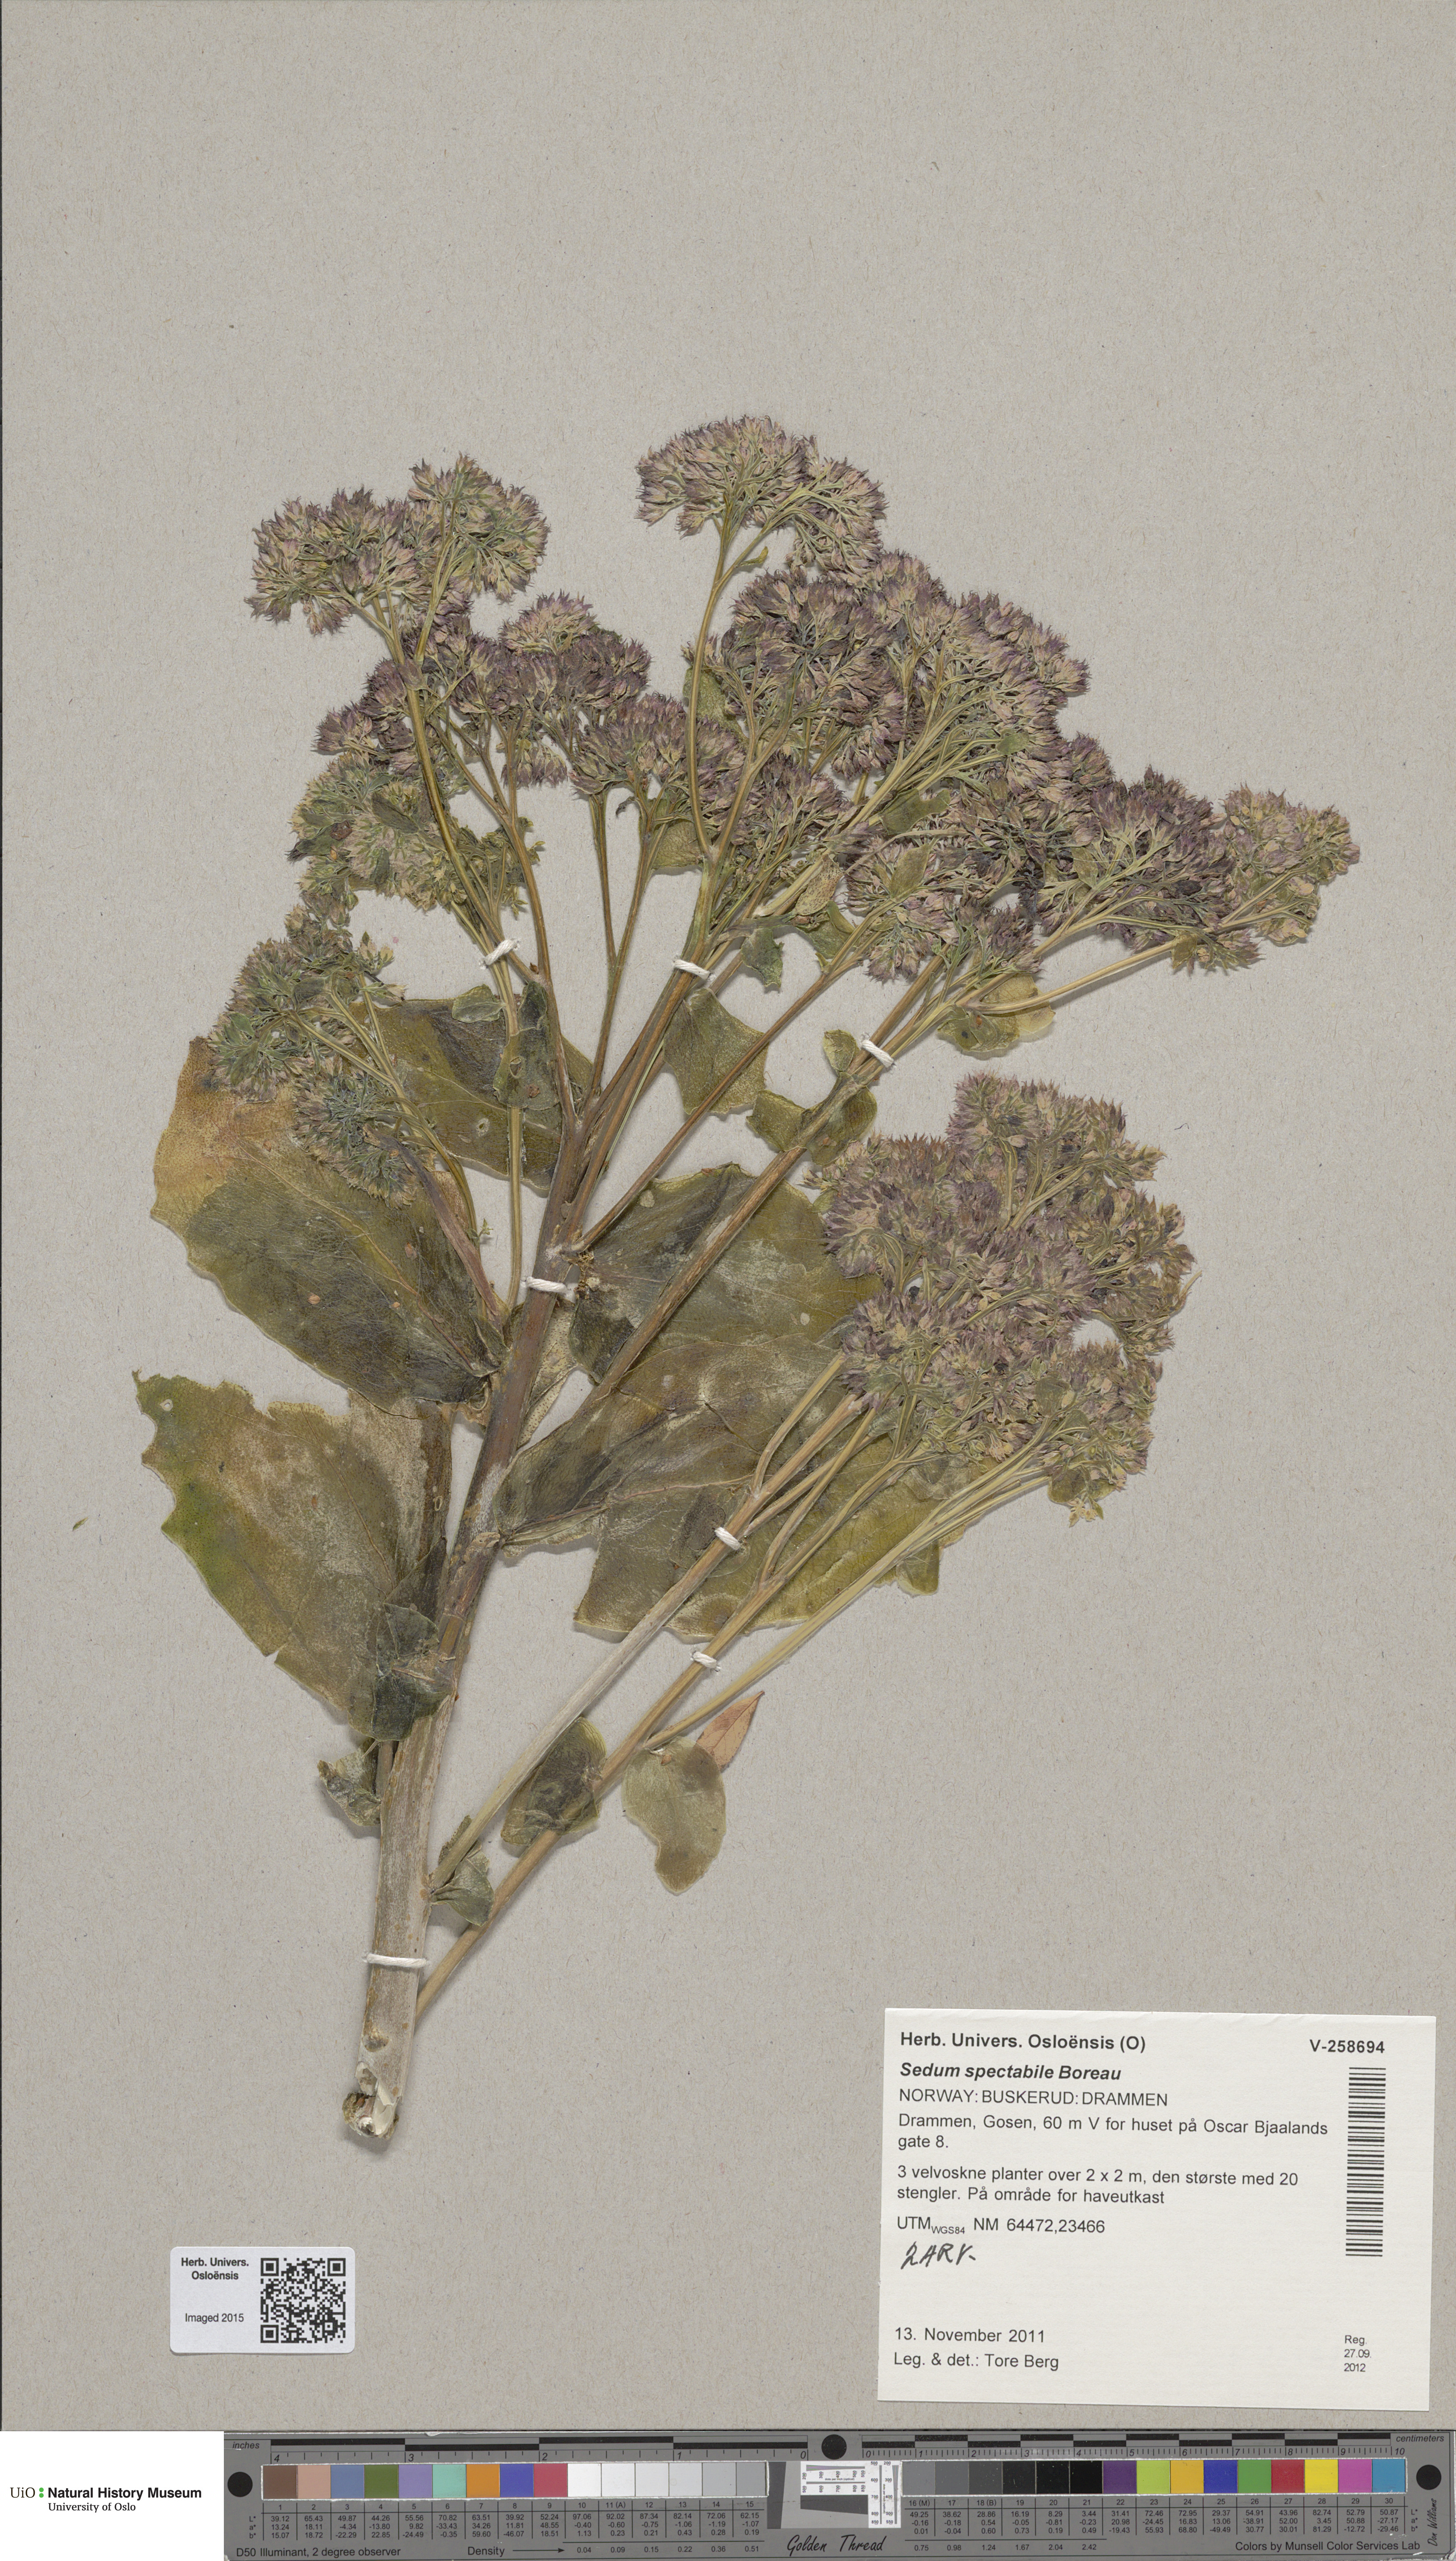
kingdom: Plantae
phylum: Tracheophyta
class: Magnoliopsida
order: Saxifragales
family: Crassulaceae
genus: Hylotelephium
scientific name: Hylotelephium spectabile
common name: Showy stonecrop
